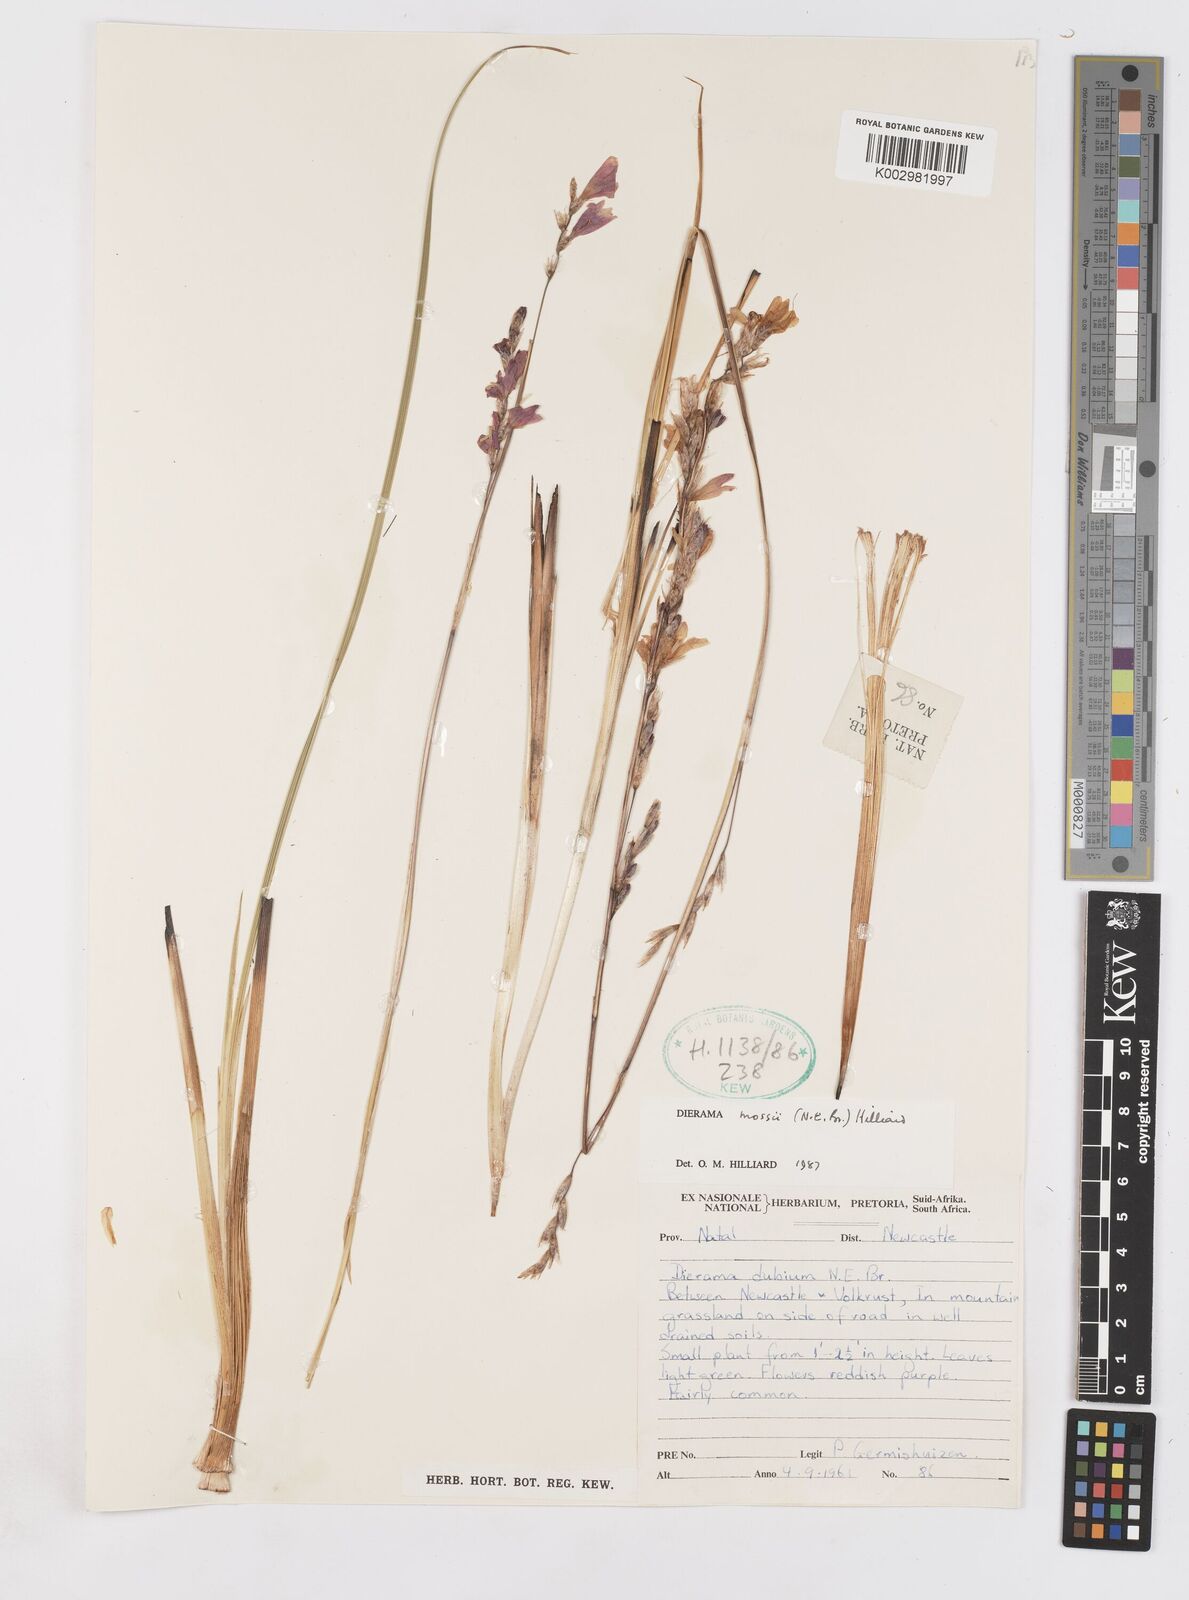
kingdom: Plantae
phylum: Tracheophyta
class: Liliopsida
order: Asparagales
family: Iridaceae
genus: Dierama
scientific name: Dierama mossii
